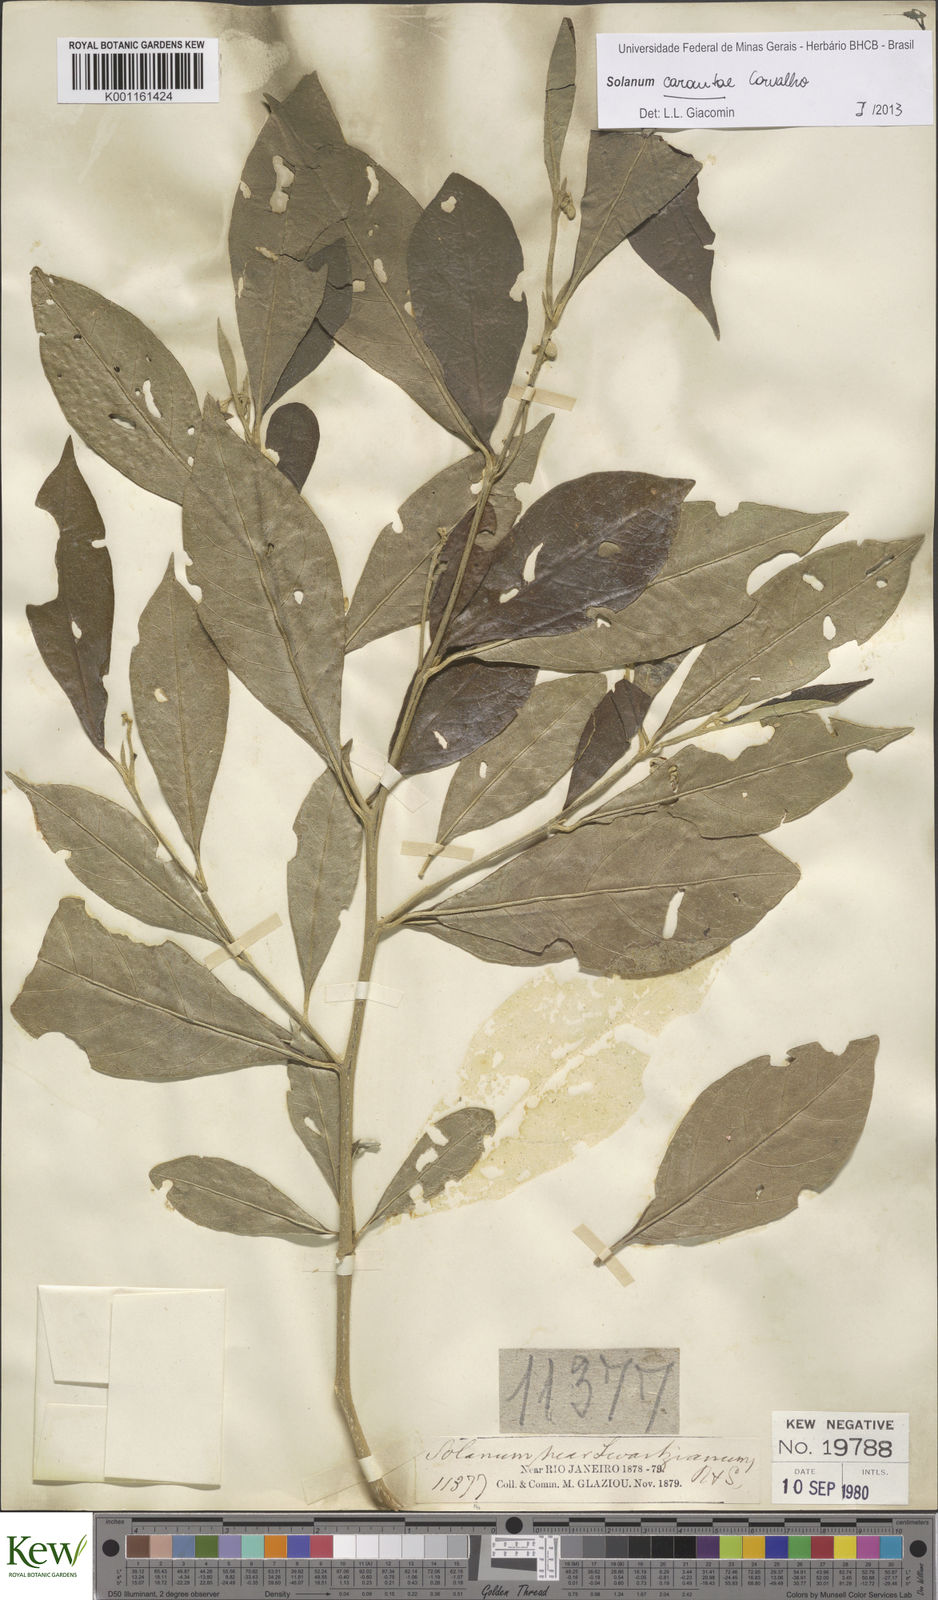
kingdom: Plantae
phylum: Tracheophyta
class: Magnoliopsida
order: Solanales
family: Solanaceae
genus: Solanum
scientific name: Solanum carautae
